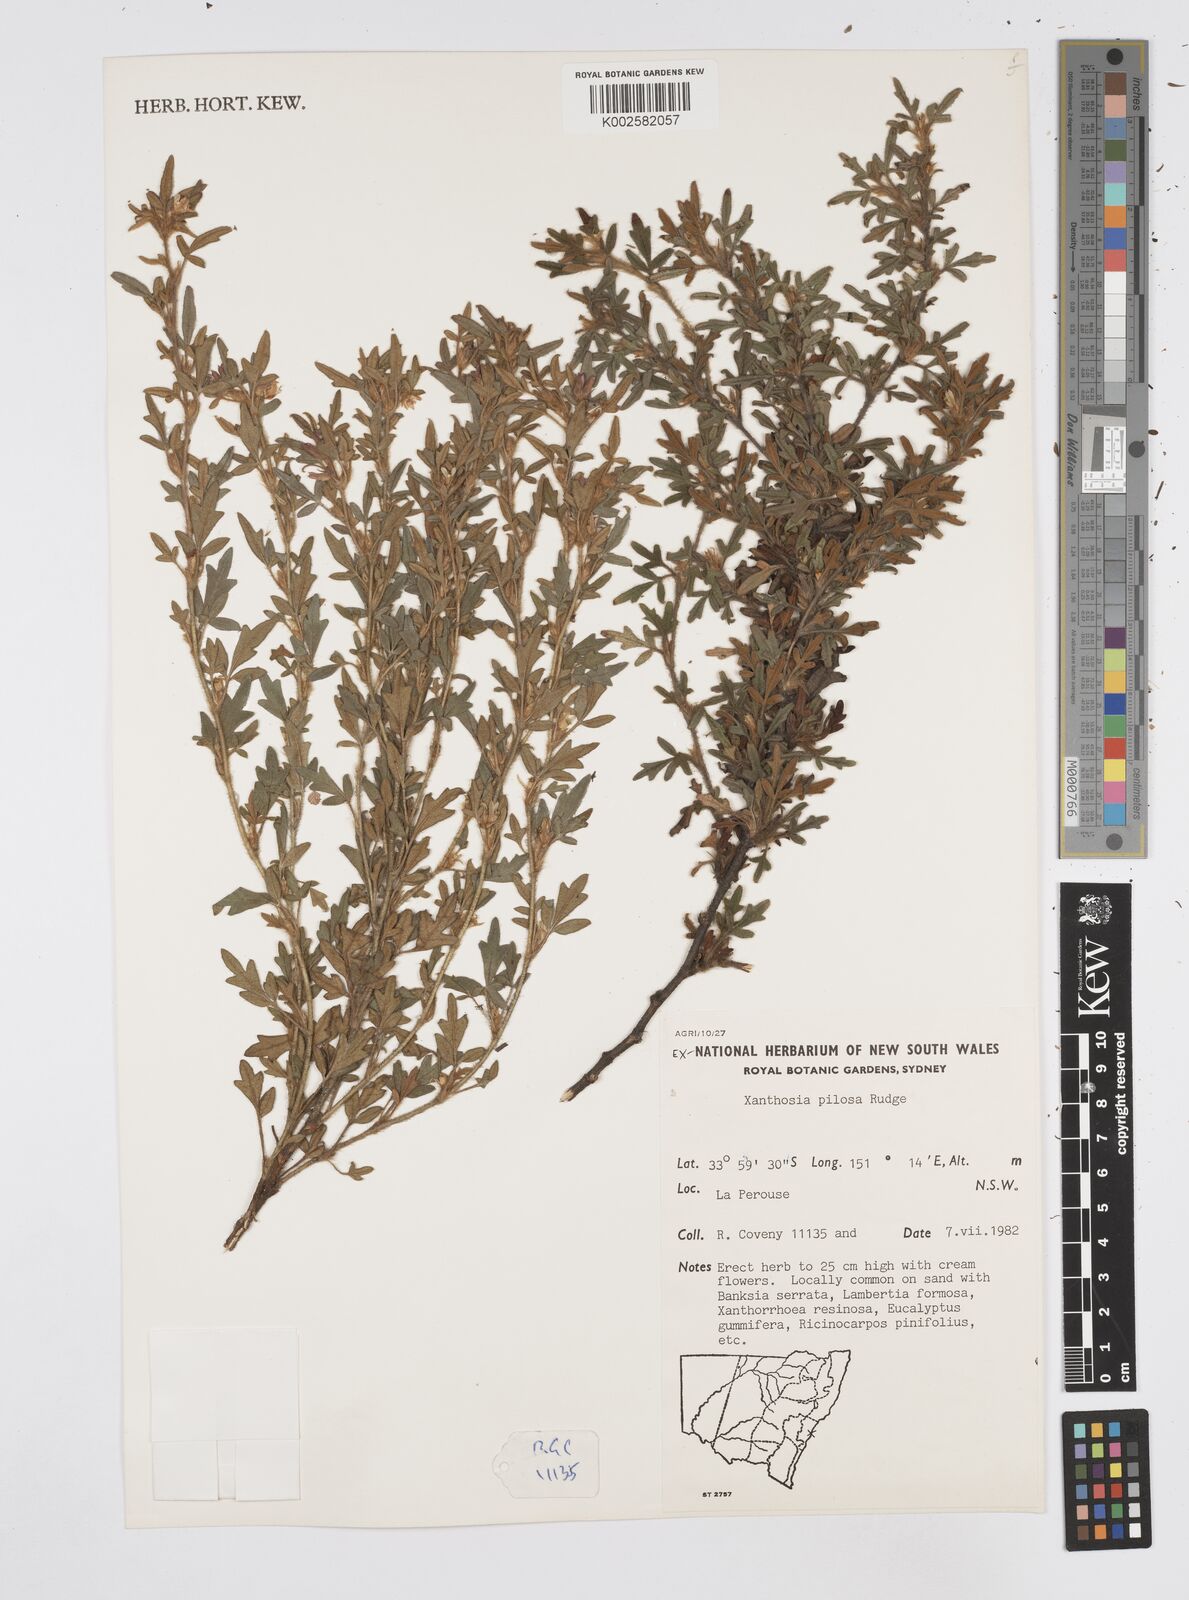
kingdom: Plantae
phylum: Tracheophyta
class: Magnoliopsida
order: Apiales
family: Apiaceae
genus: Xanthosia
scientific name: Xanthosia pilosa
